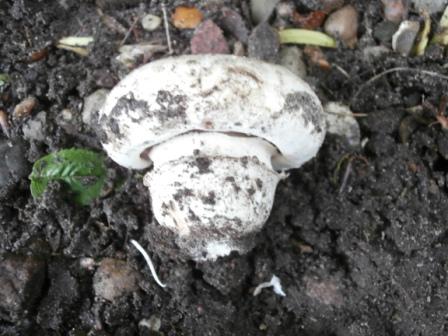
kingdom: Fungi
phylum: Basidiomycota
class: Agaricomycetes
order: Agaricales
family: Agaricaceae
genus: Agaricus
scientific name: Agaricus bitorquis
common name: vej-champignon
